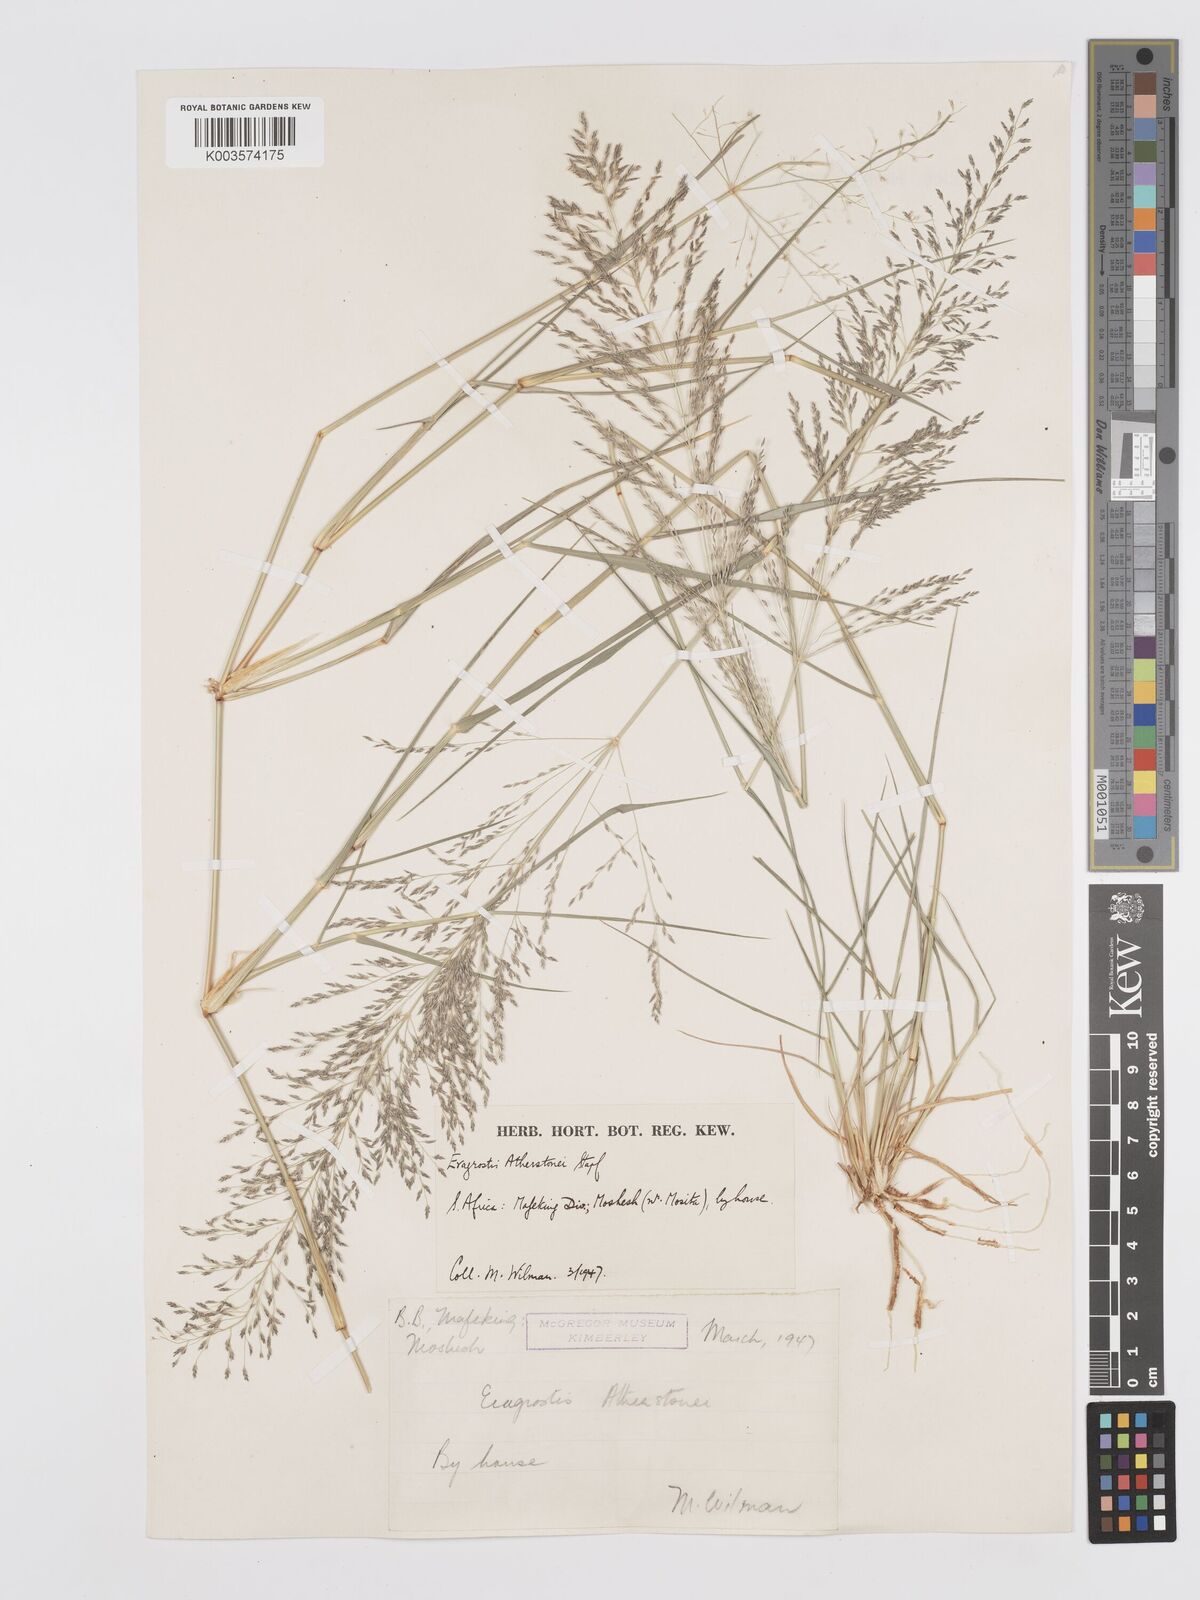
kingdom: Plantae
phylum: Tracheophyta
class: Liliopsida
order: Poales
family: Poaceae
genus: Eragrostis
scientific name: Eragrostis cylindriflora
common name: Cylinderflower lovegrass
